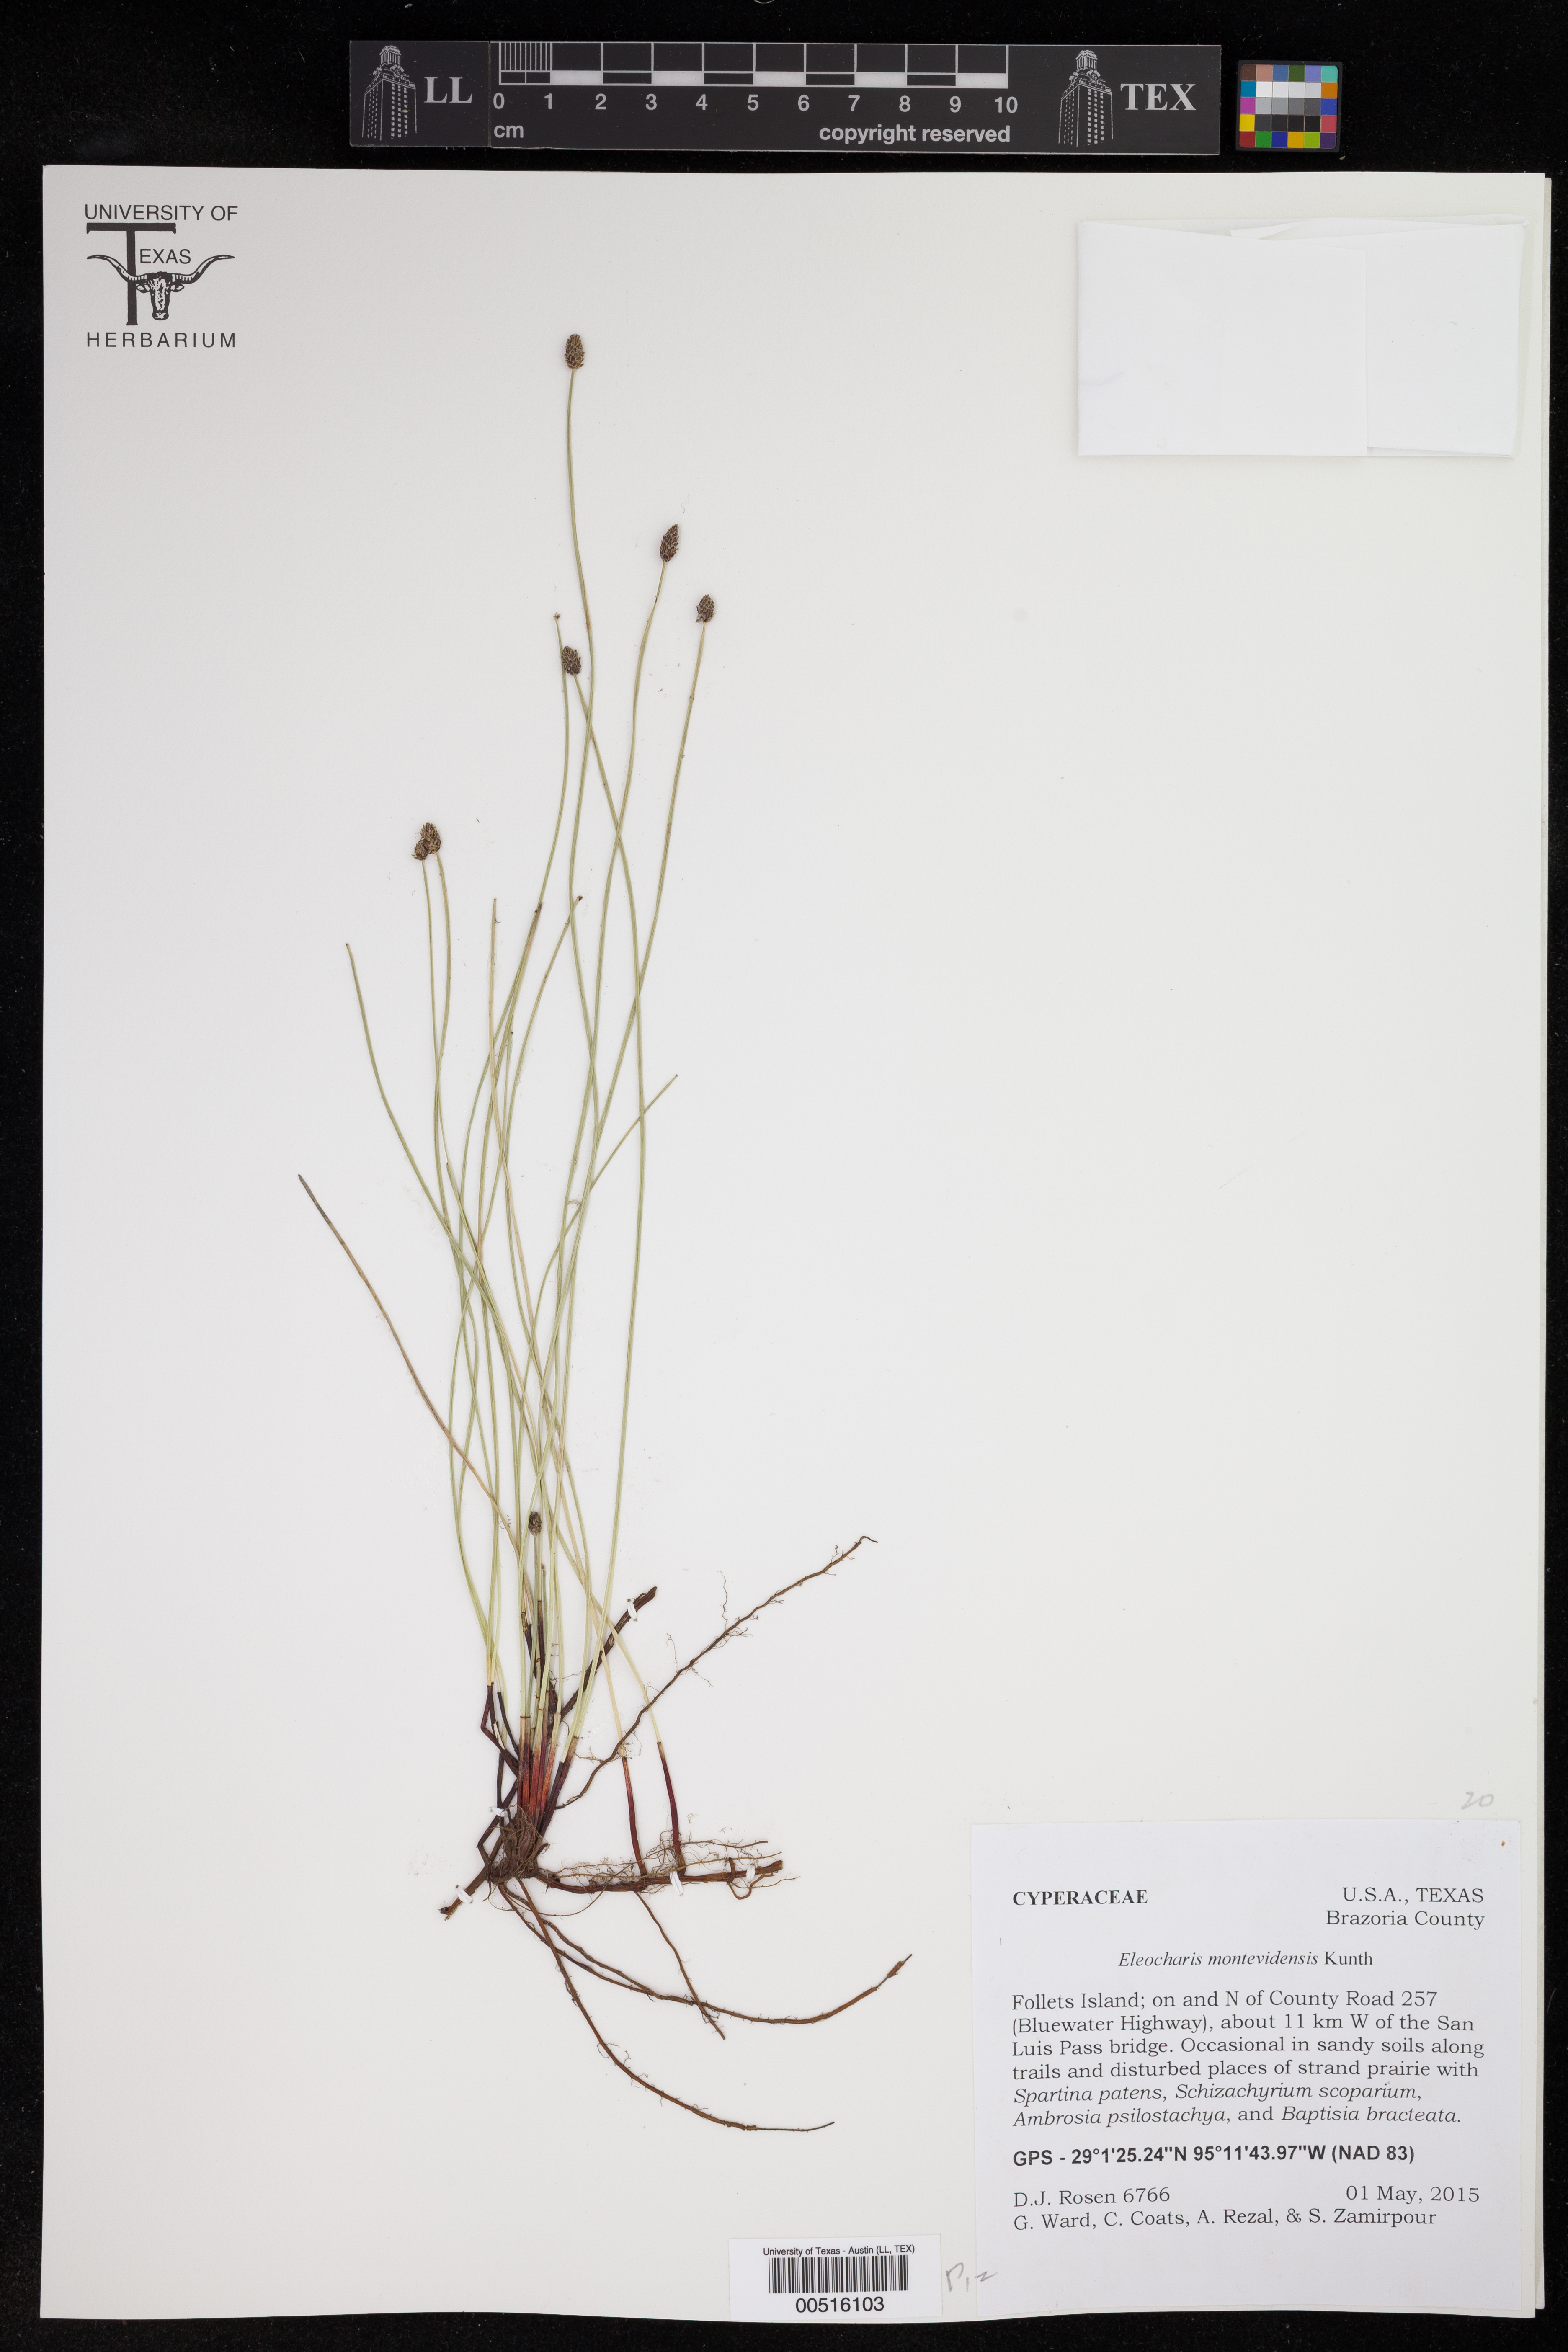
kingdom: Plantae
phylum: Tracheophyta
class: Liliopsida
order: Poales
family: Cyperaceae
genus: Eleocharis
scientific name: Eleocharis montevidensis
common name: Sand spike-rush
